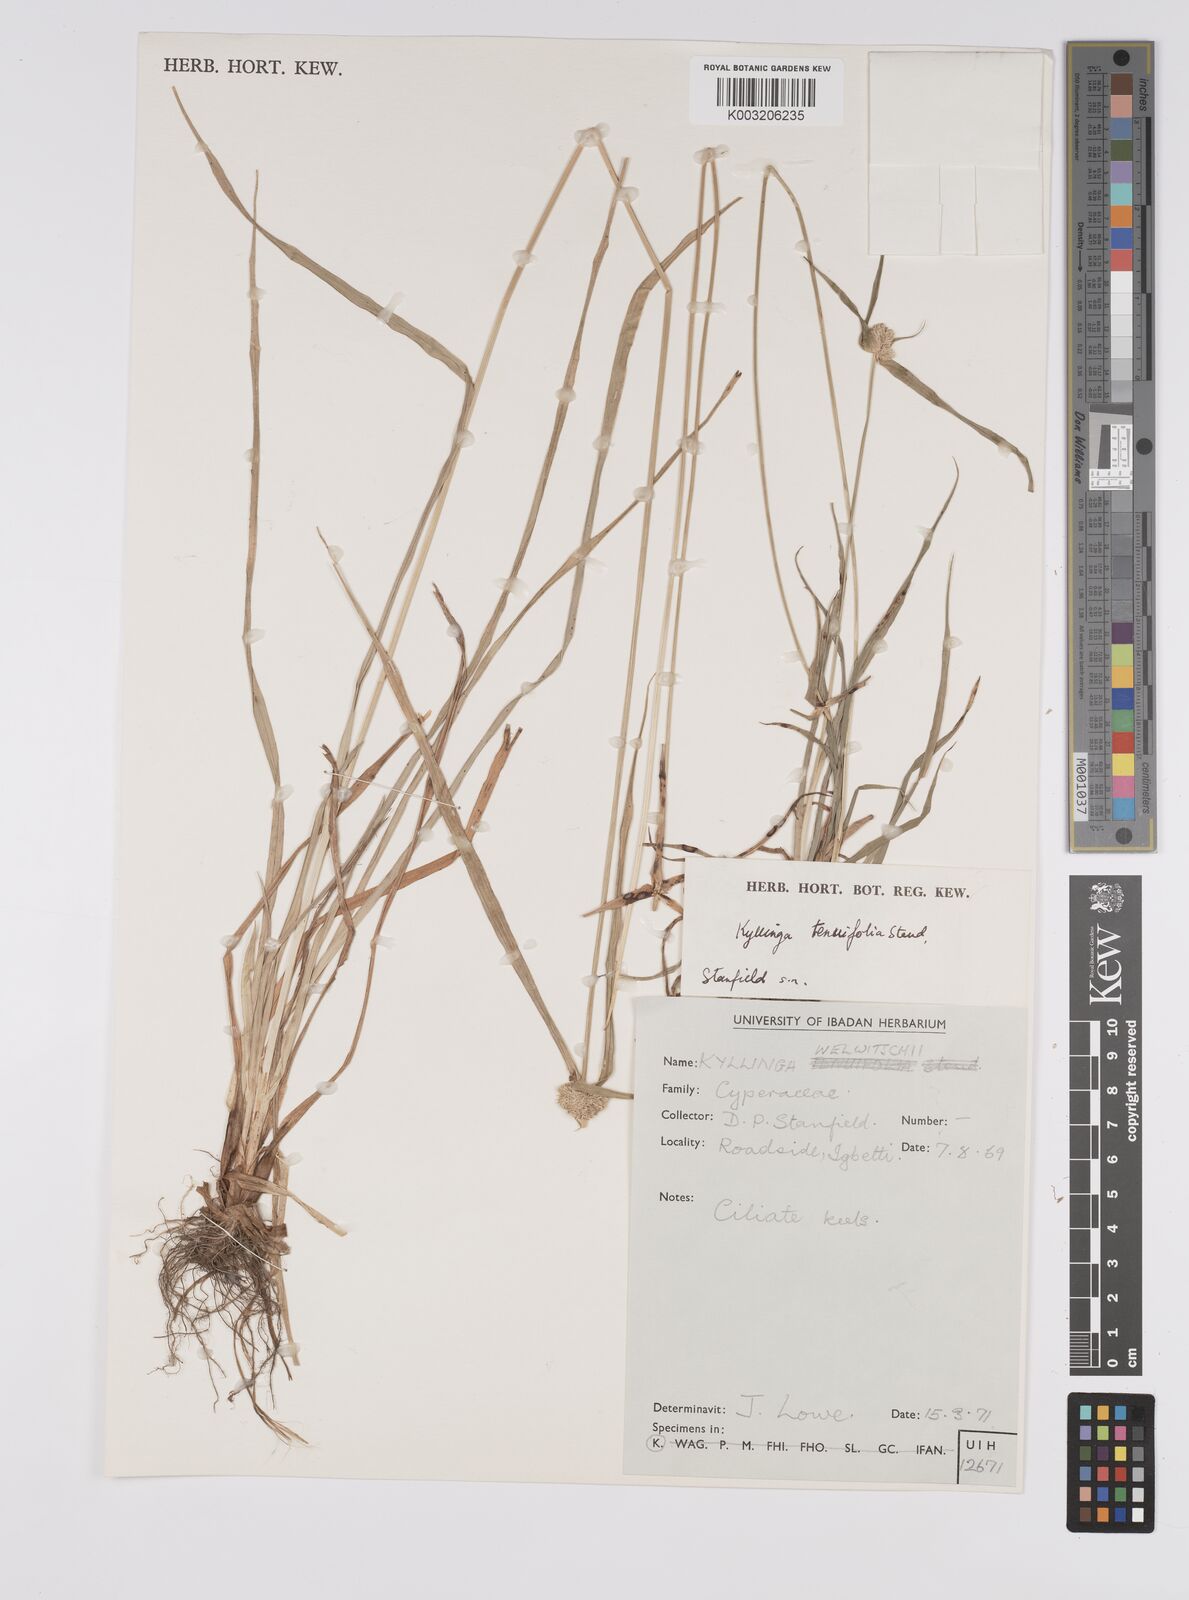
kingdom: Plantae
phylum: Tracheophyta
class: Liliopsida
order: Poales
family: Cyperaceae
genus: Cyperus
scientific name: Cyperus
